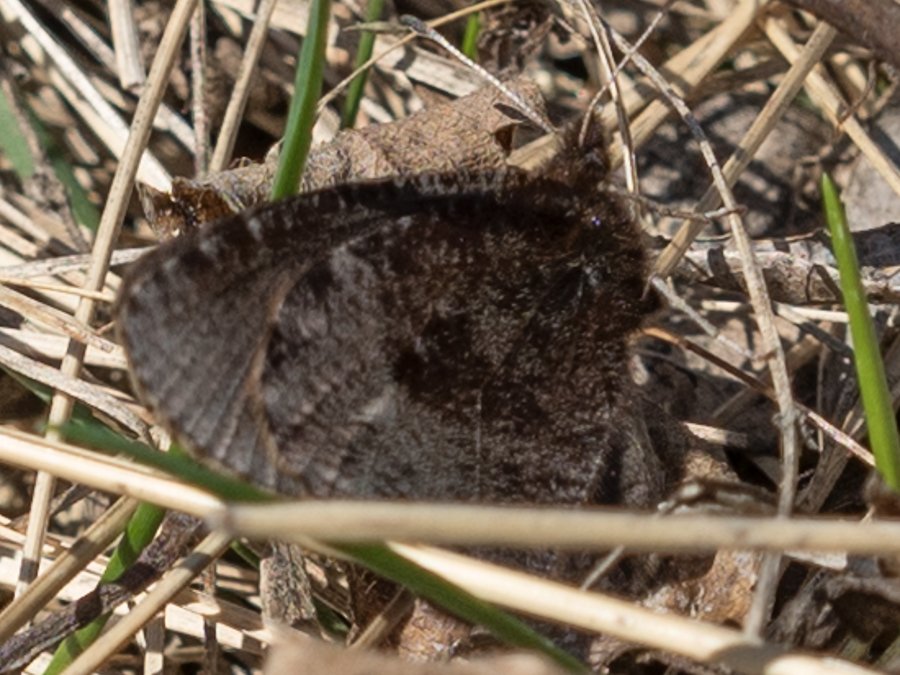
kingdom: Animalia
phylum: Arthropoda
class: Insecta
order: Lepidoptera
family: Nymphalidae
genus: Erebia
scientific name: Erebia discoidalis
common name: Red-disked Alpine
